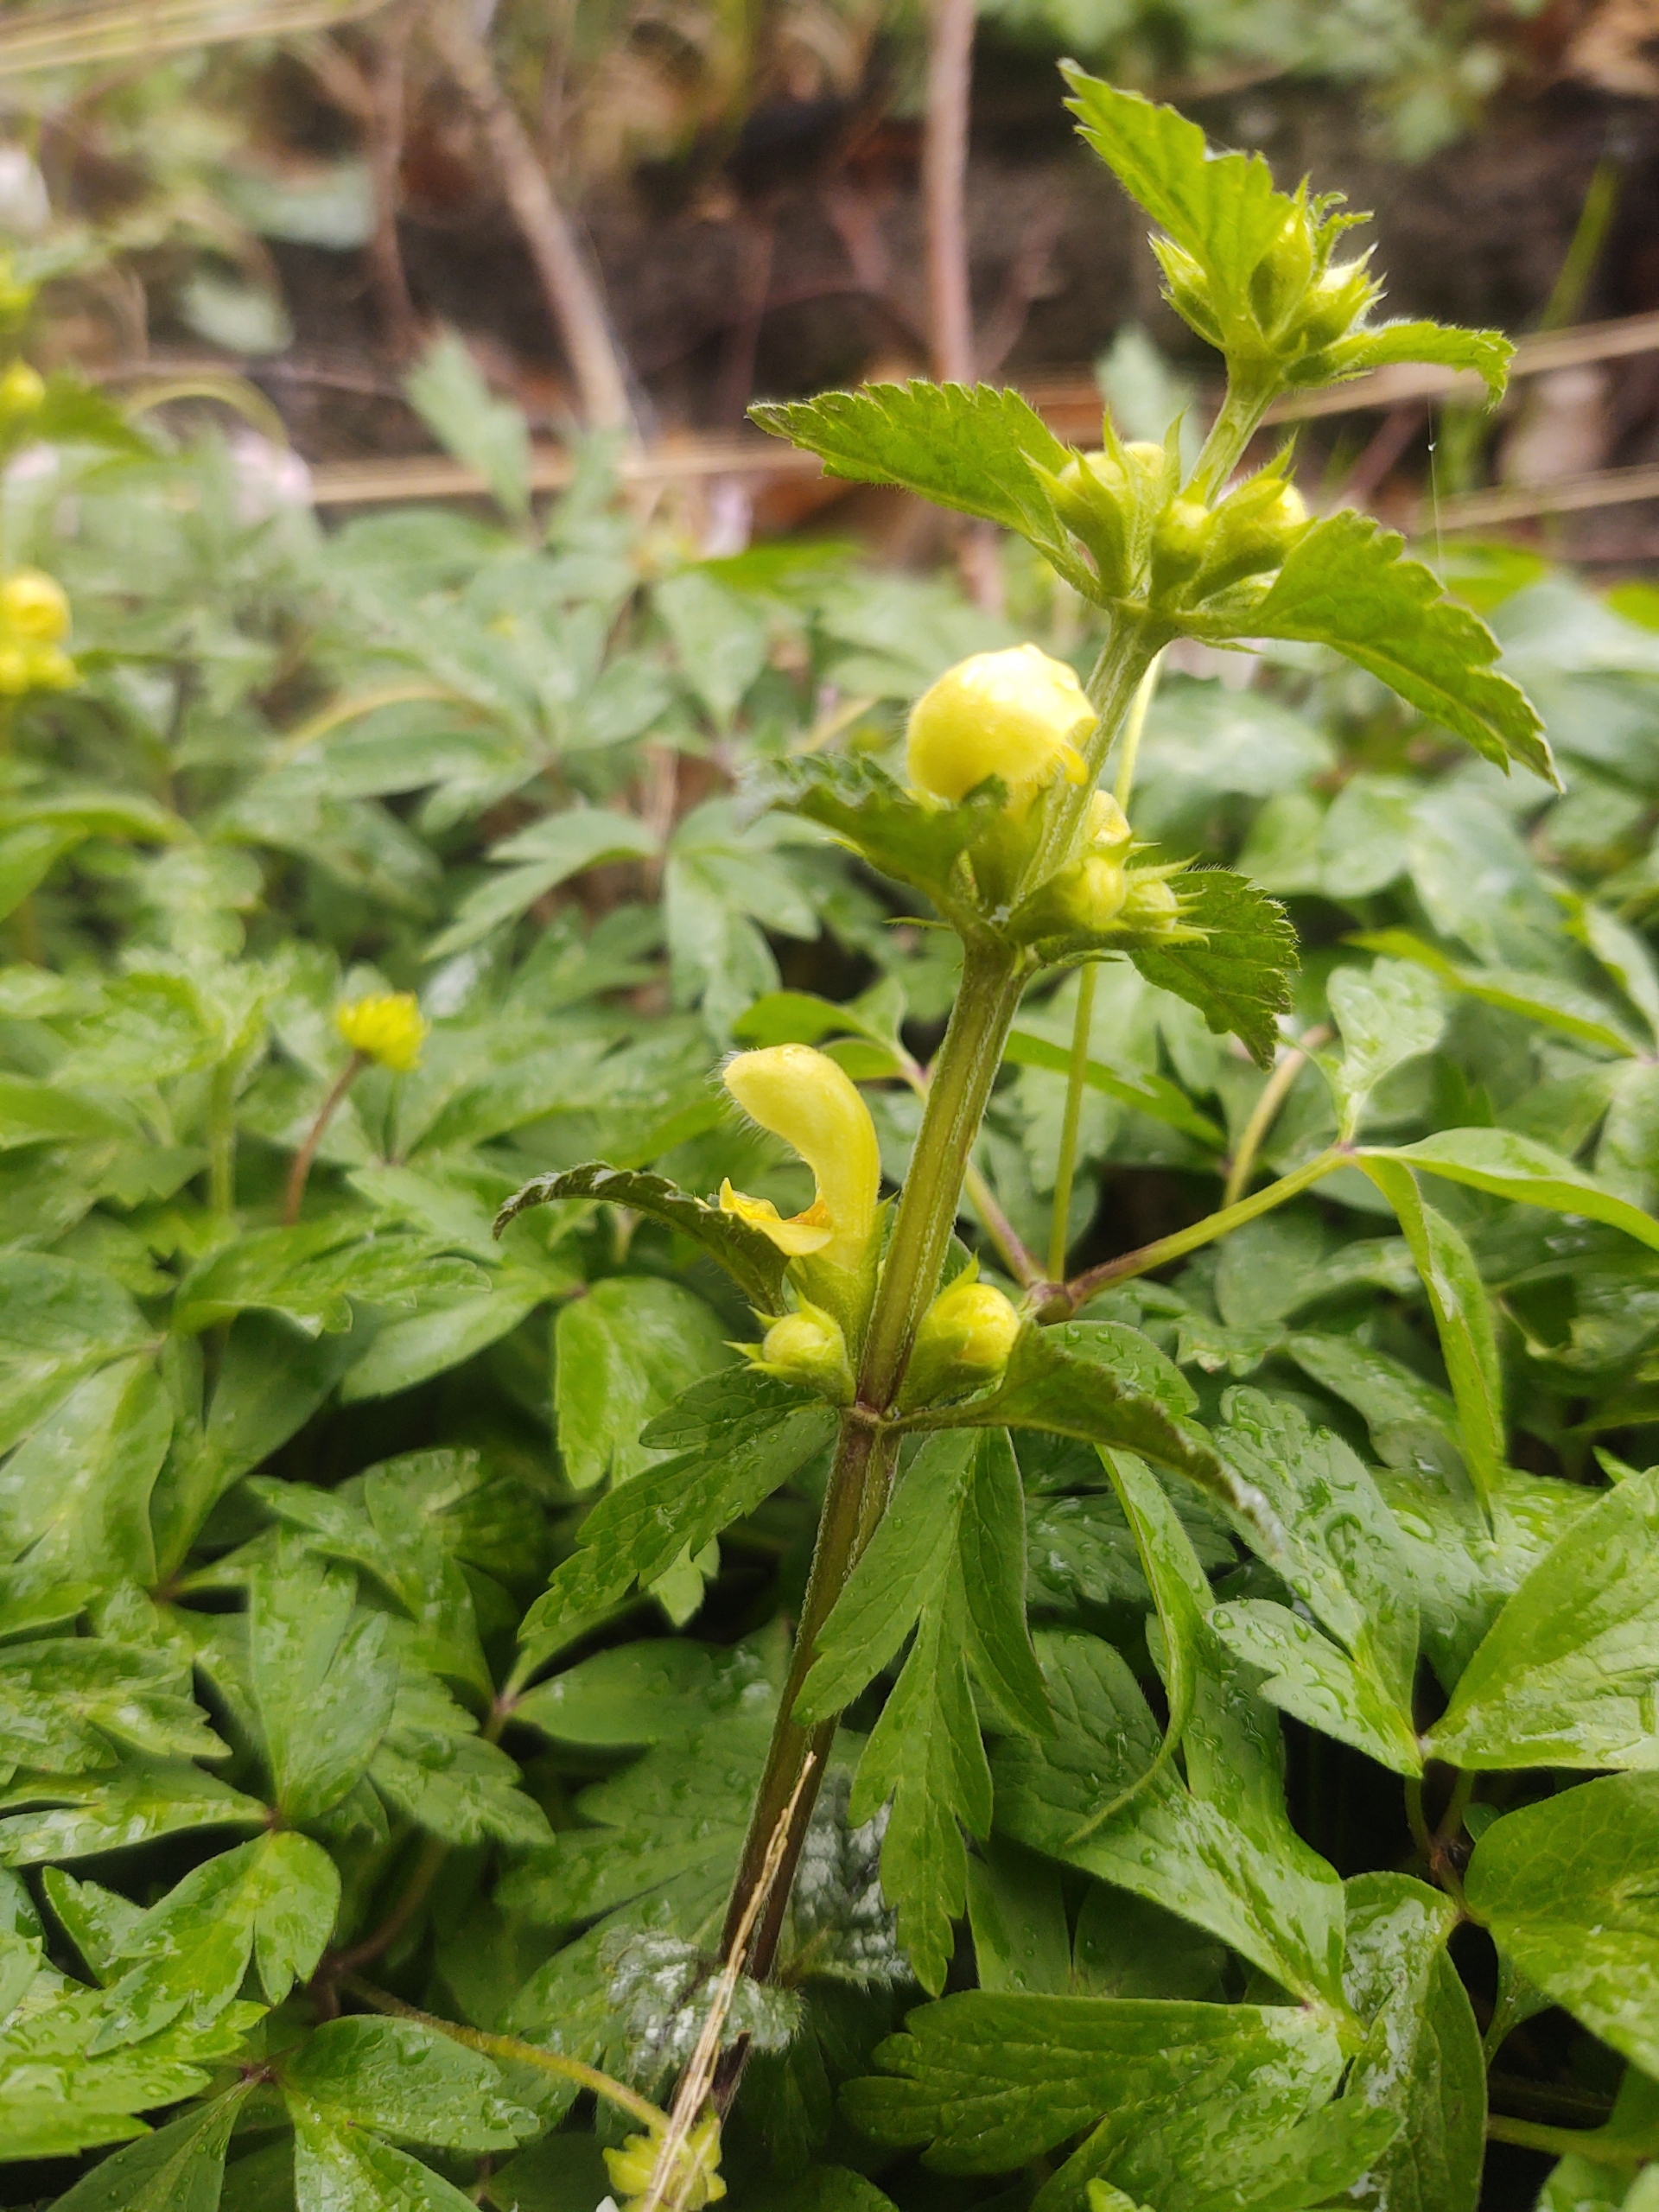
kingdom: Plantae
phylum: Tracheophyta
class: Magnoliopsida
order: Lamiales
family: Lamiaceae
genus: Lamium
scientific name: Lamium galeobdolon
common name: Almindelig guldnælde
